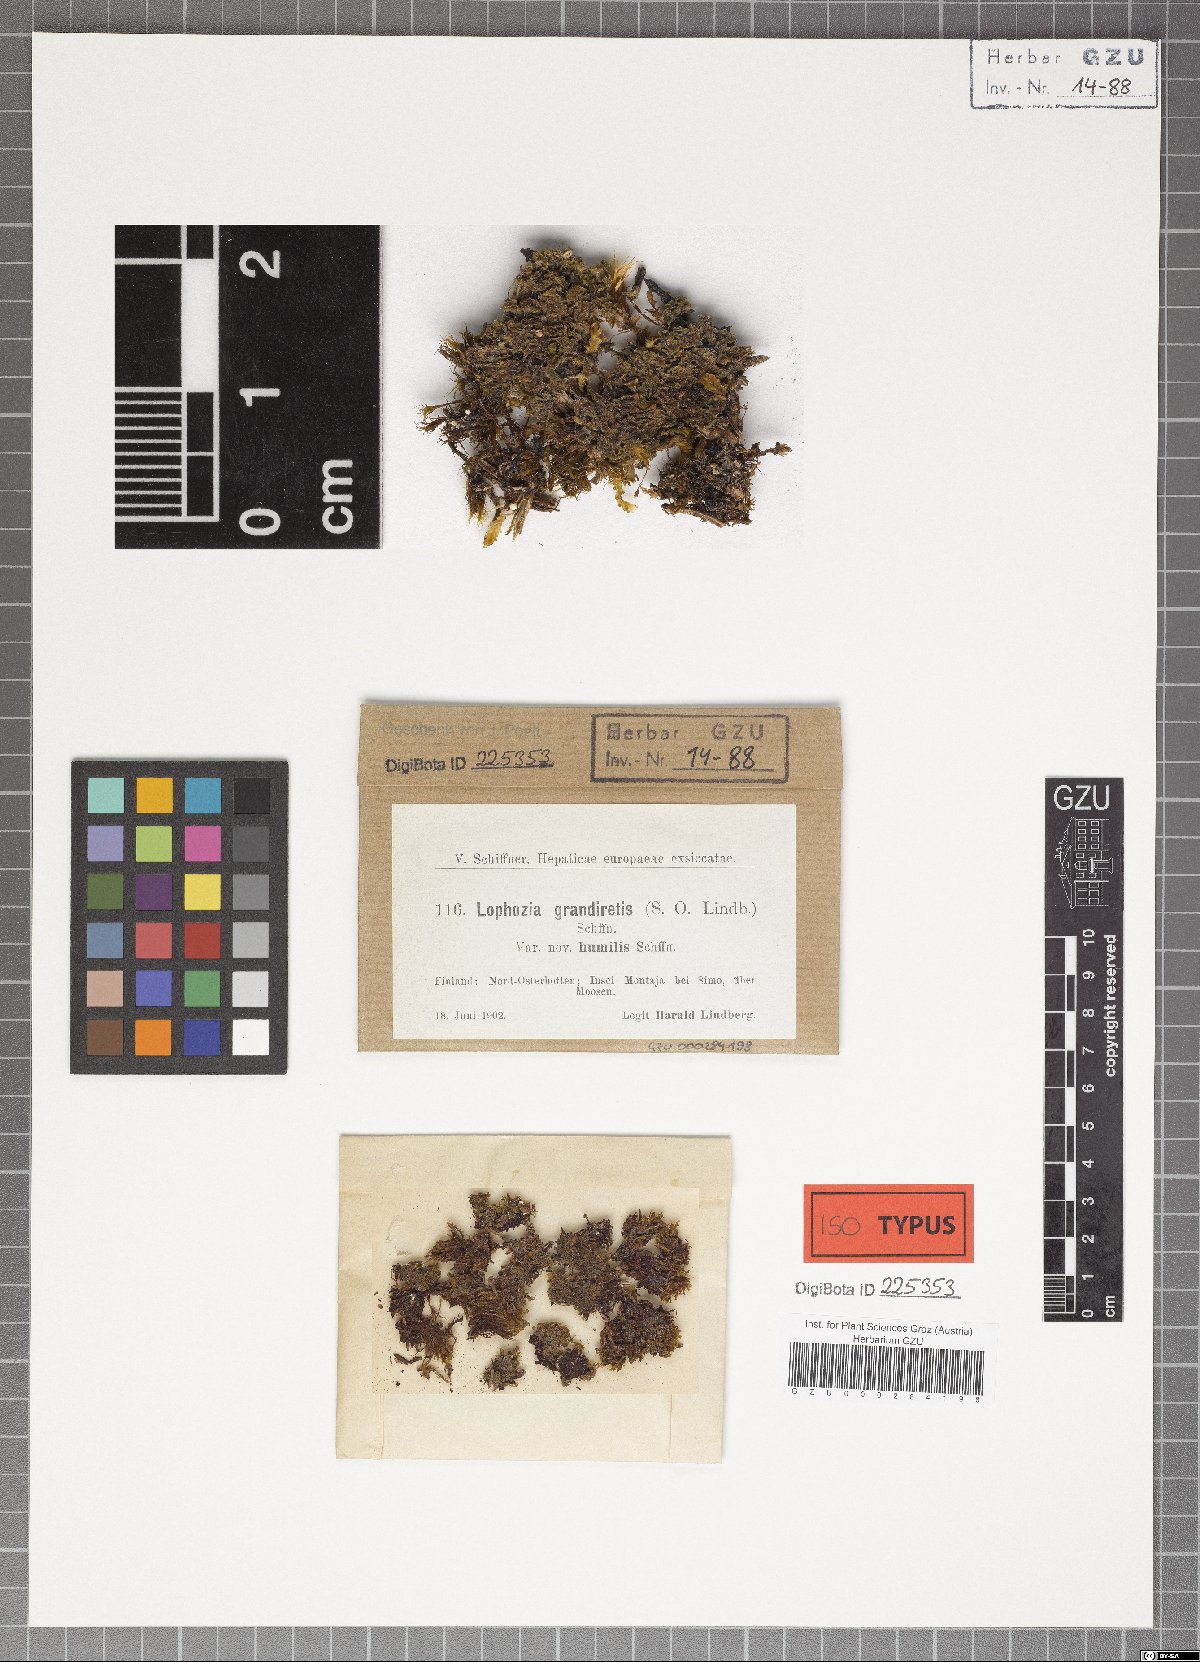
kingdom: Plantae
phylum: Marchantiophyta
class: Jungermanniopsida
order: Jungermanniales
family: Scapaniaceae
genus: Protochilopsis
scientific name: Protochilopsis grandiretis
